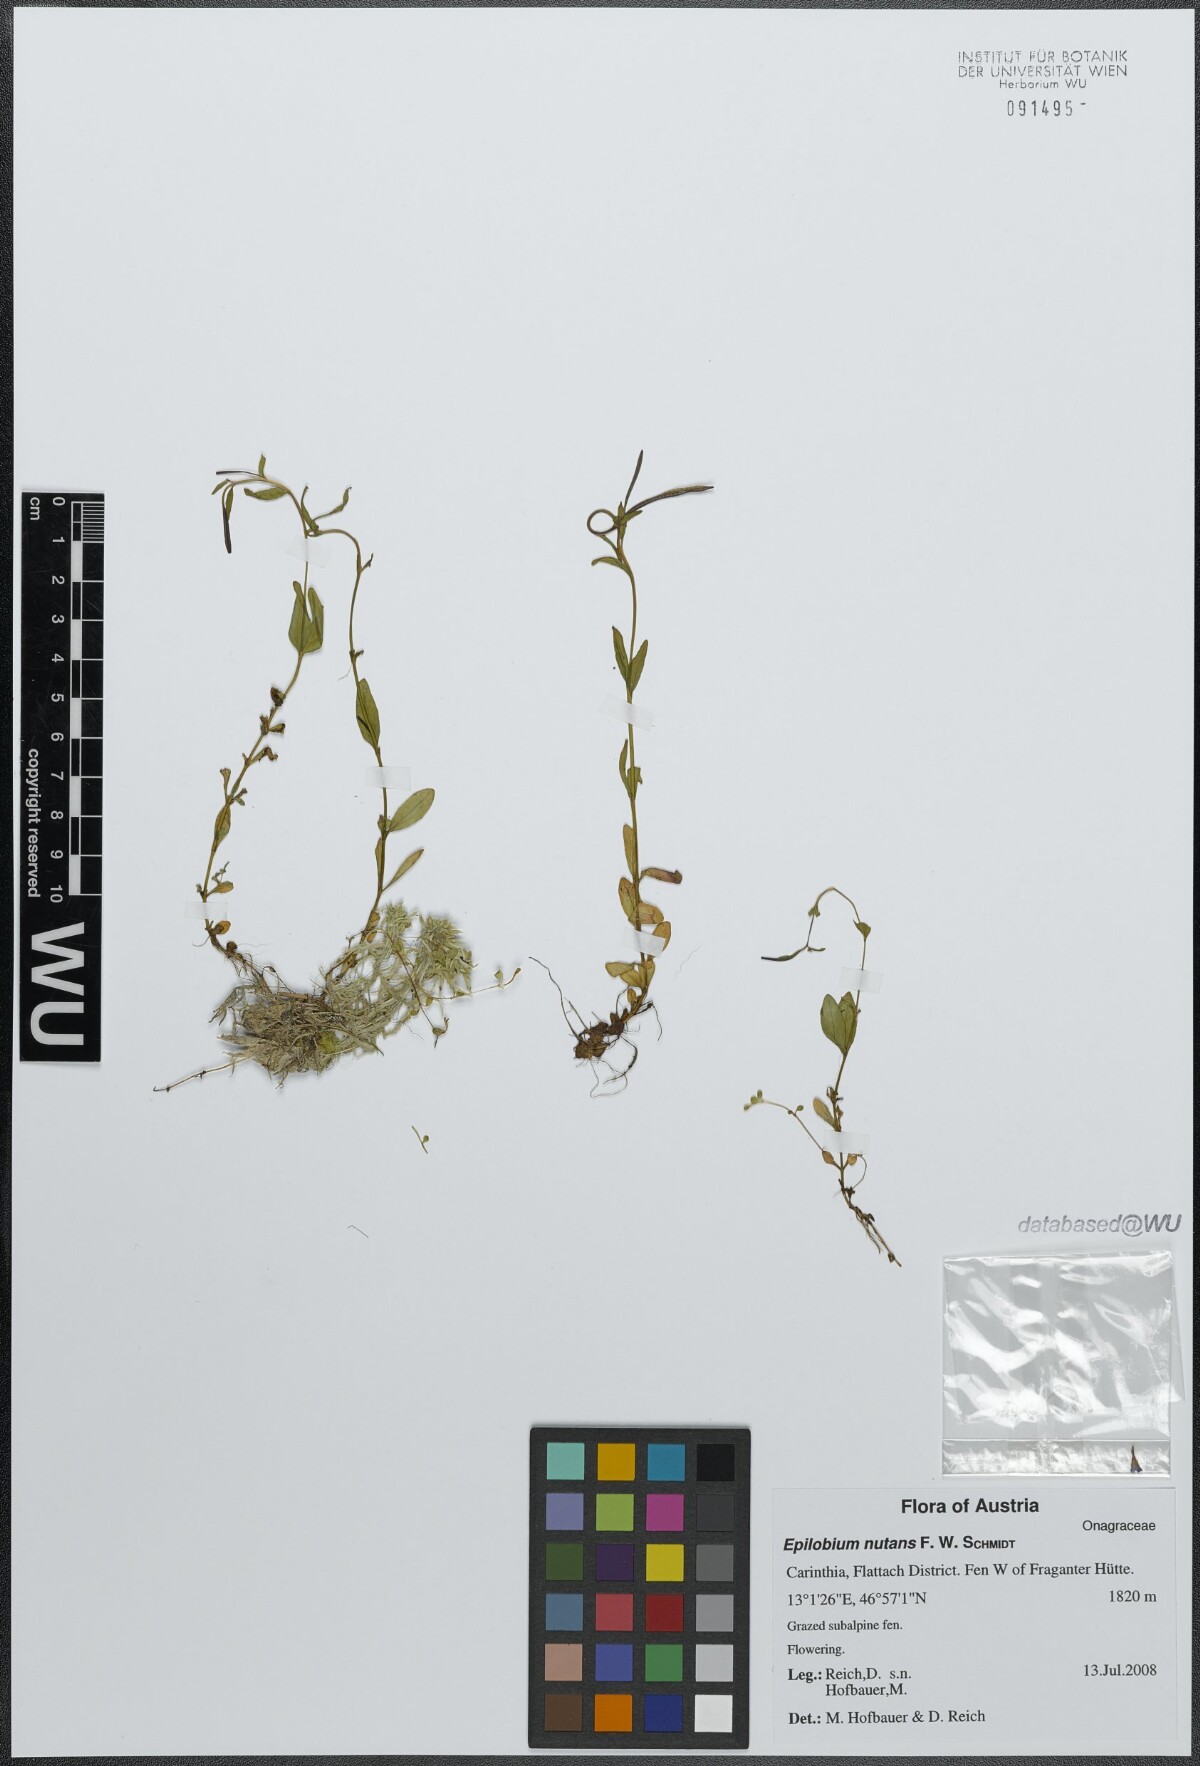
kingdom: Plantae
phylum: Tracheophyta
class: Magnoliopsida
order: Myrtales
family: Onagraceae
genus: Epilobium
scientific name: Epilobium nutans
